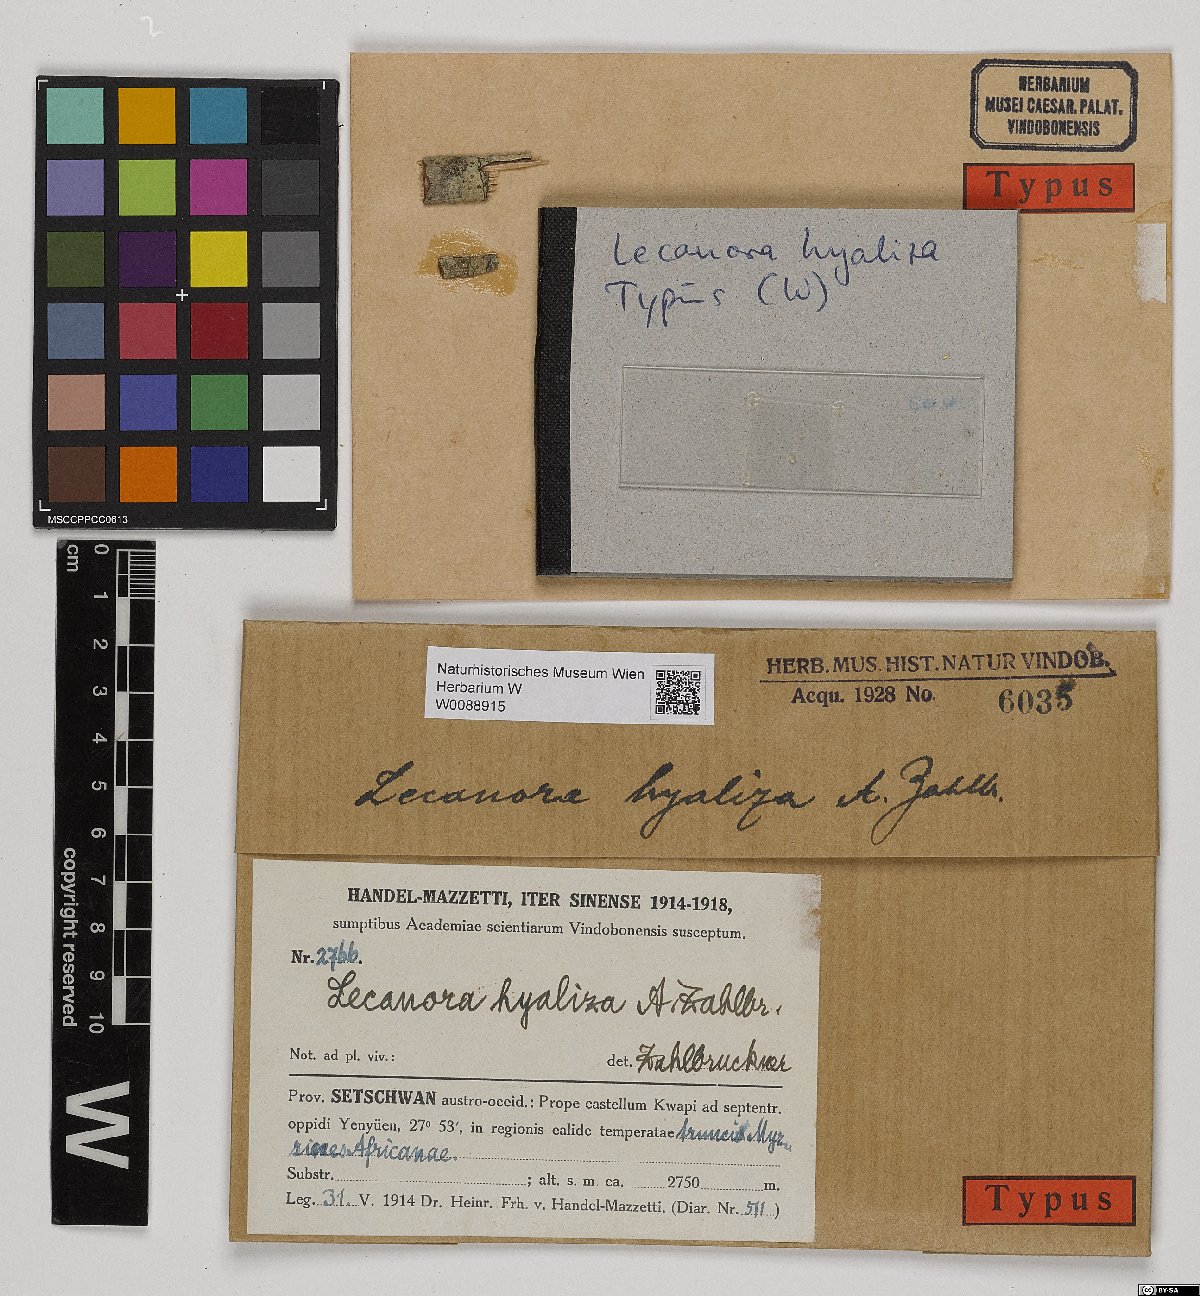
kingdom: Fungi
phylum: Ascomycota
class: Lecanoromycetes
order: Lecanorales
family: Lecanoraceae
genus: Lecanora
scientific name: Lecanora hyaliza
